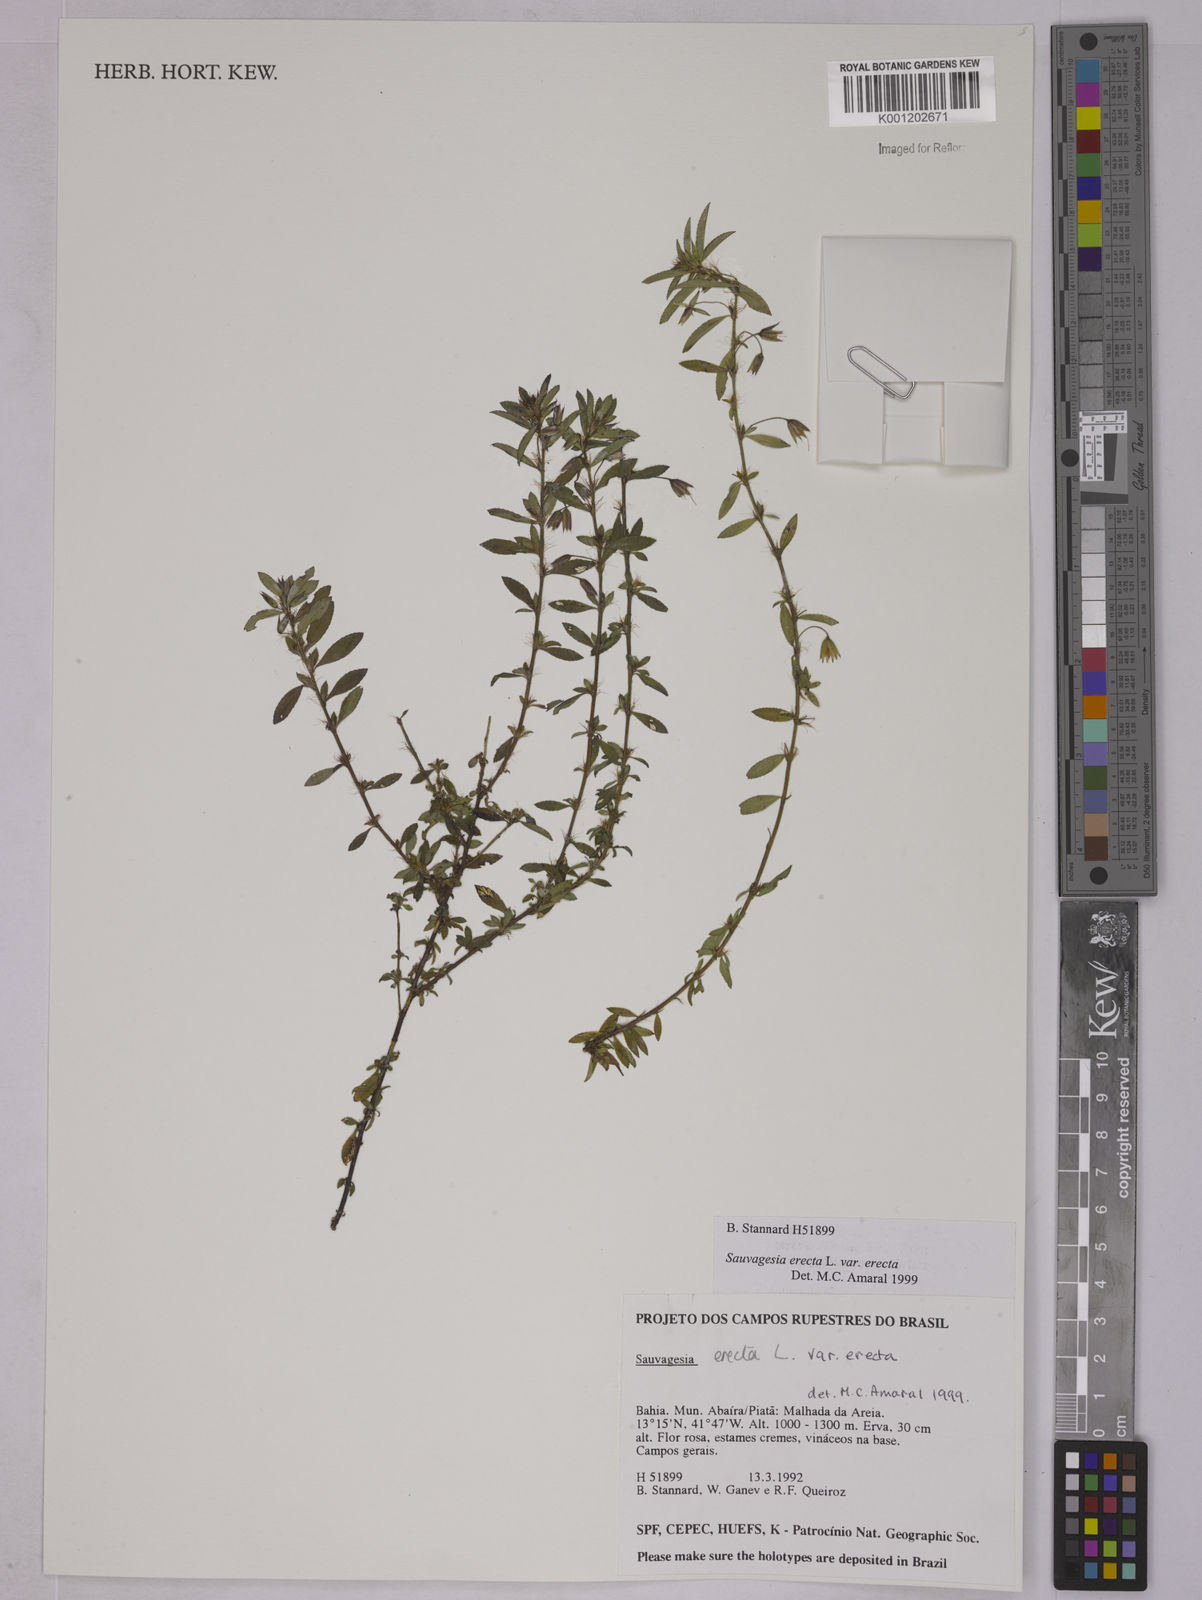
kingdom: Plantae
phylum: Tracheophyta
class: Magnoliopsida
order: Malpighiales
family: Ochnaceae
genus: Sauvagesia
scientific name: Sauvagesia erecta
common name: Creole tea
